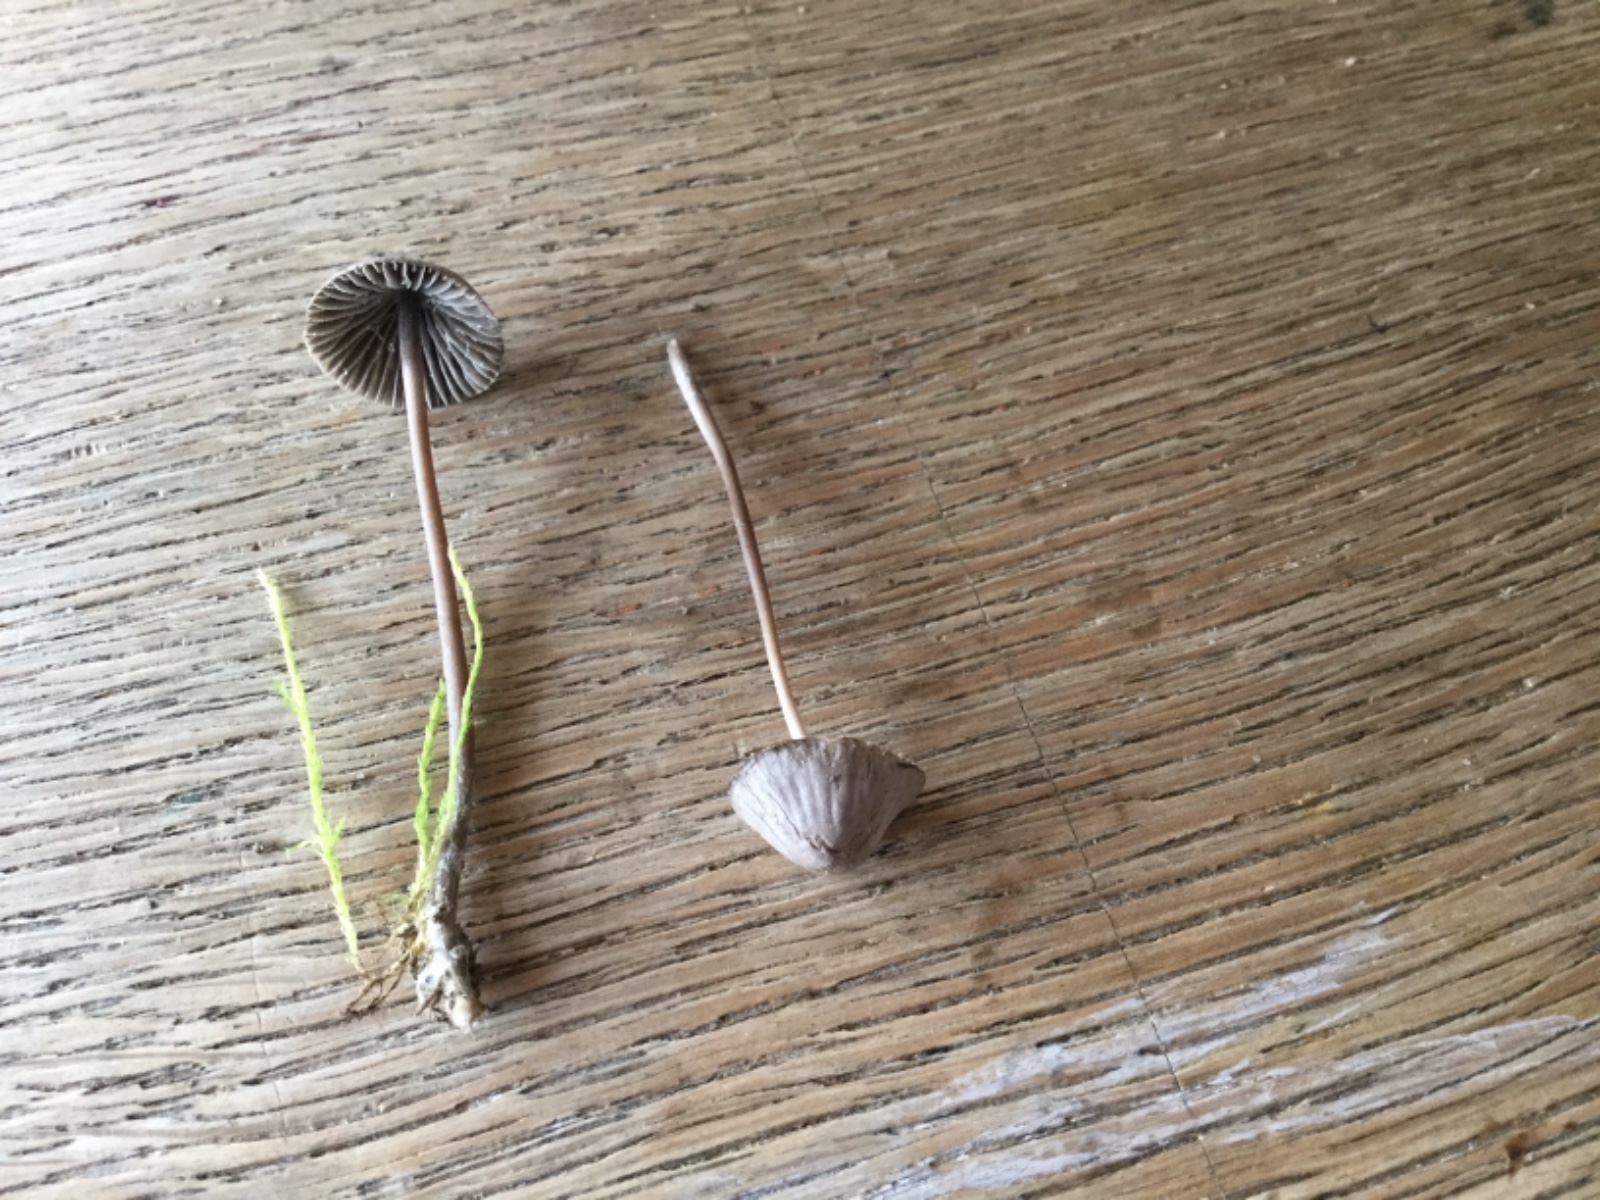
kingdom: Fungi
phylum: Basidiomycota
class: Agaricomycetes
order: Agaricales
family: Mycenaceae
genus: Mycena
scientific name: Mycena leptocephala
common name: klor-huesvamp
